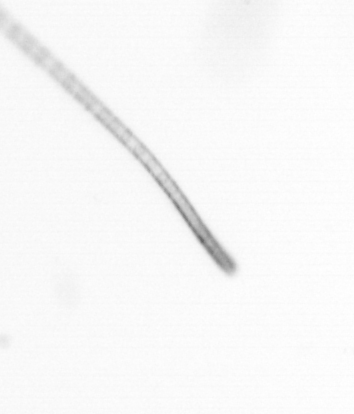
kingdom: Chromista
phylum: Ochrophyta
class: Bacillariophyceae
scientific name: Bacillariophyceae
